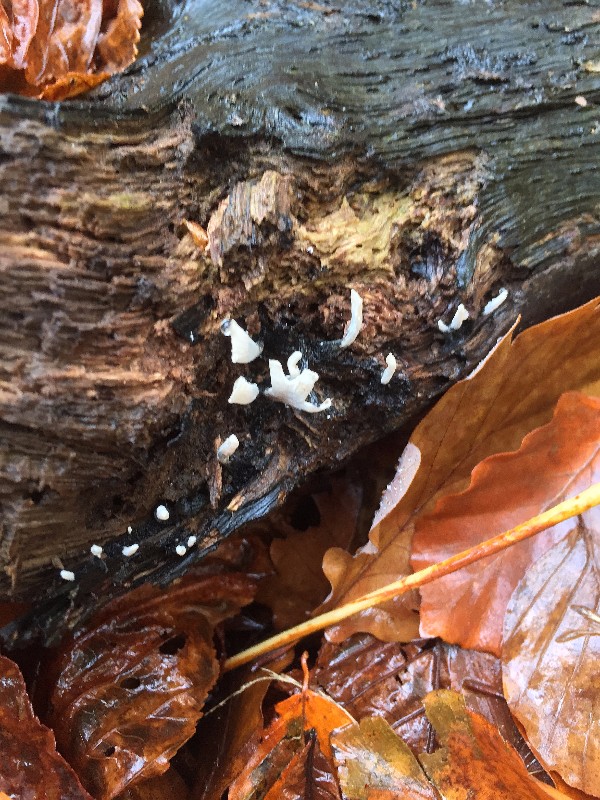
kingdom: Fungi
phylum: Ascomycota
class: Sordariomycetes
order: Xylariales
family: Xylariaceae
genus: Xylaria
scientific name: Xylaria hypoxylon
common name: grenet stødsvamp
